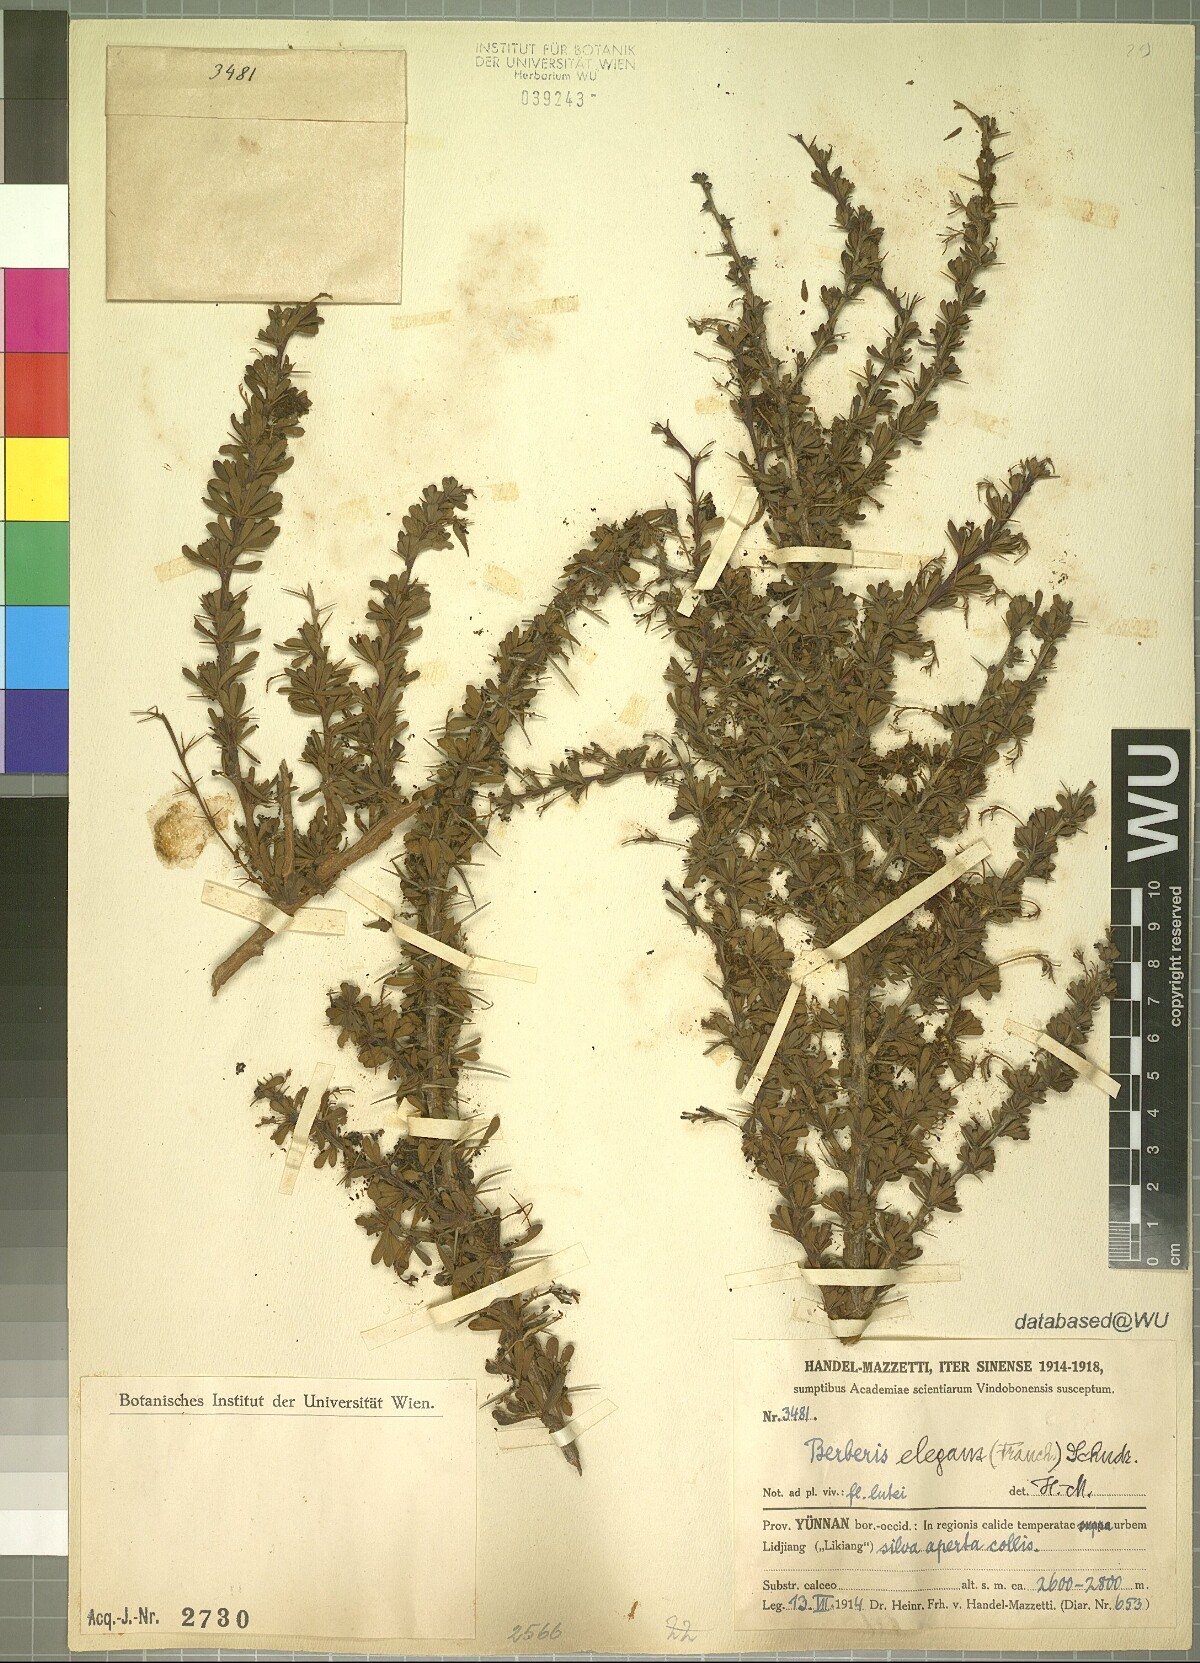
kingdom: Plantae
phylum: Tracheophyta
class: Magnoliopsida
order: Ranunculales
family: Berberidaceae
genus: Berberis
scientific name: Berberis amoena
